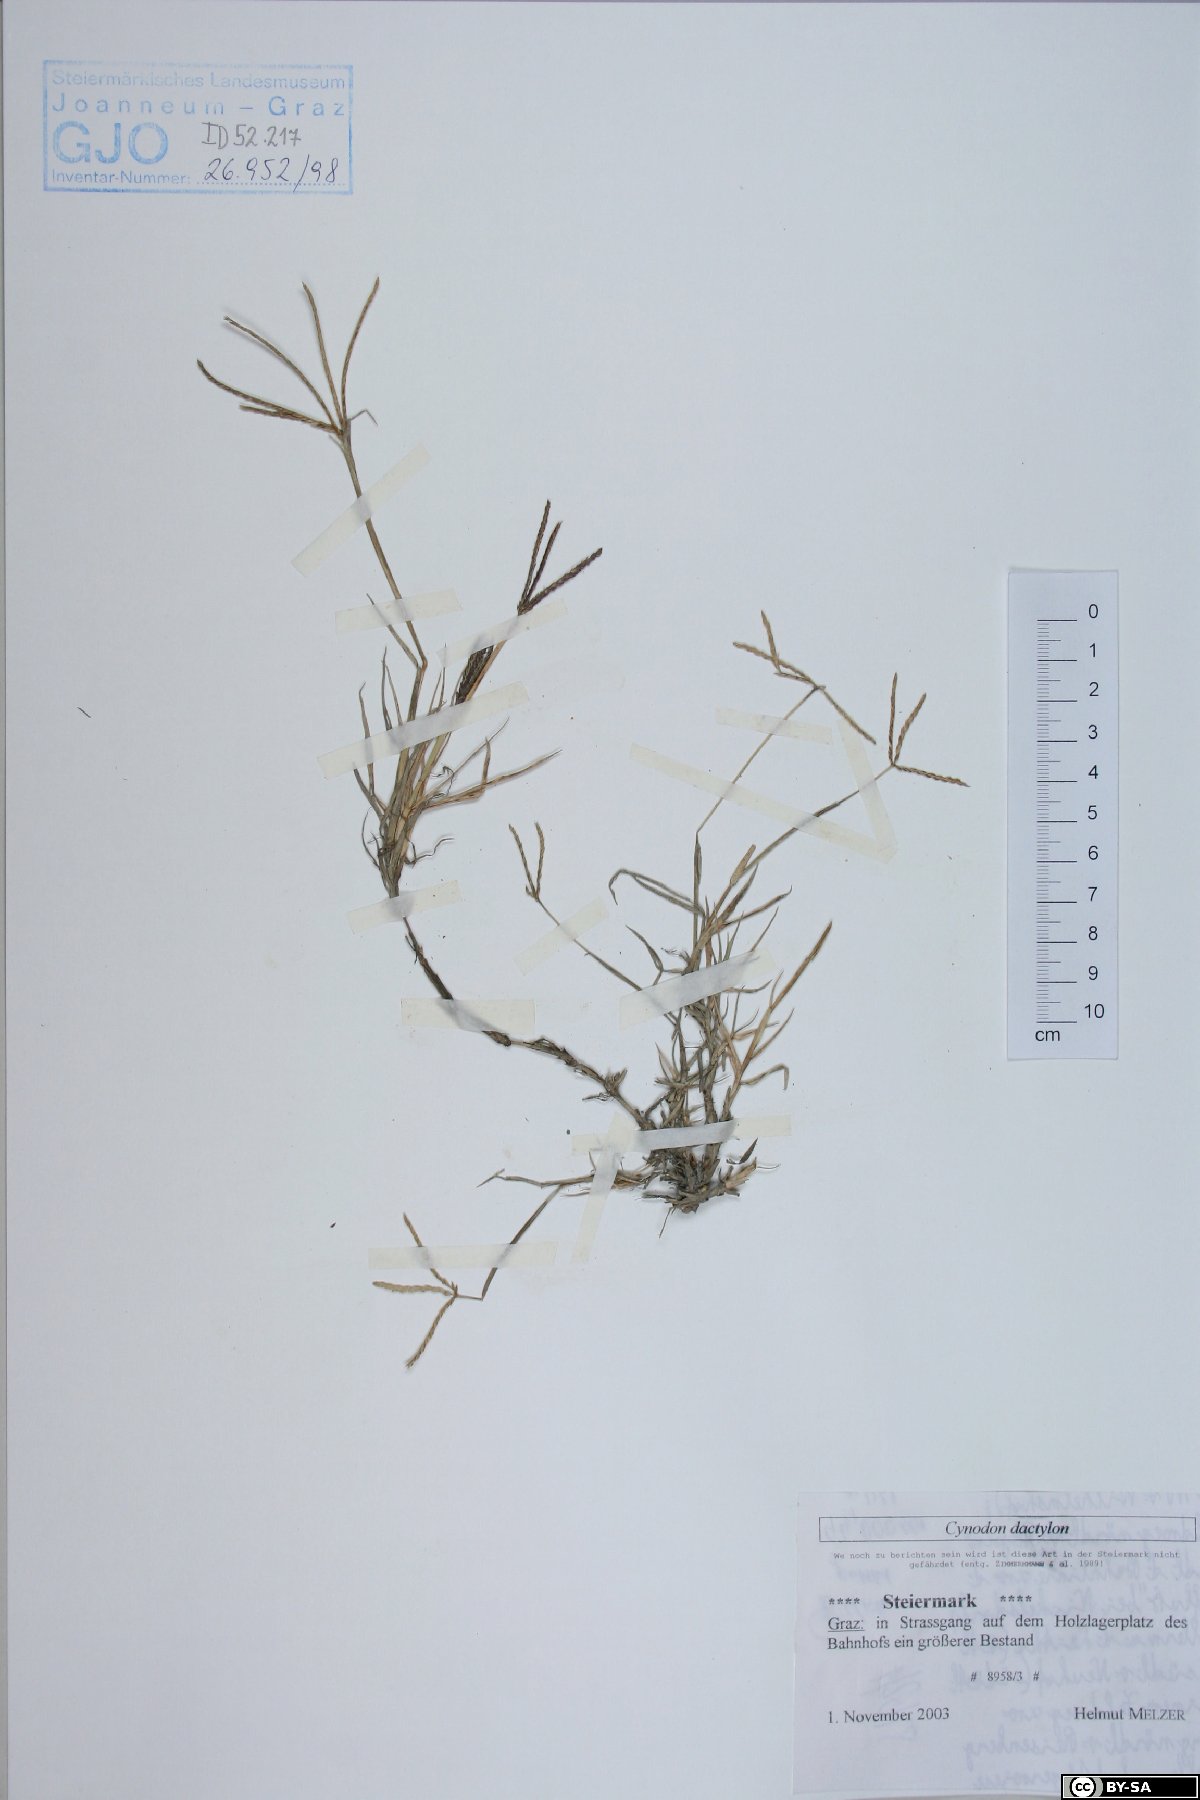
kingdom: Plantae
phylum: Tracheophyta
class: Liliopsida
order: Poales
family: Poaceae
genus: Cynodon
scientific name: Cynodon dactylon
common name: Bermuda grass
